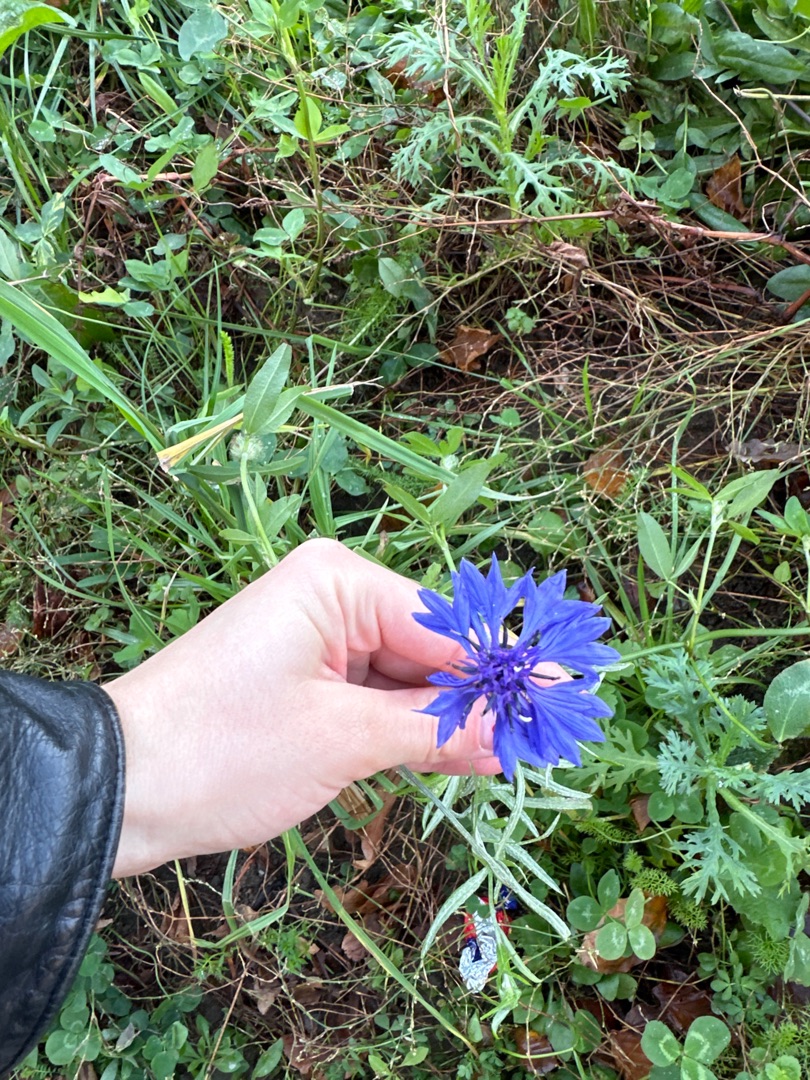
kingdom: Plantae
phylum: Tracheophyta
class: Magnoliopsida
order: Asterales
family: Asteraceae
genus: Centaurea
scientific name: Centaurea cyanus
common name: Kornblomst
